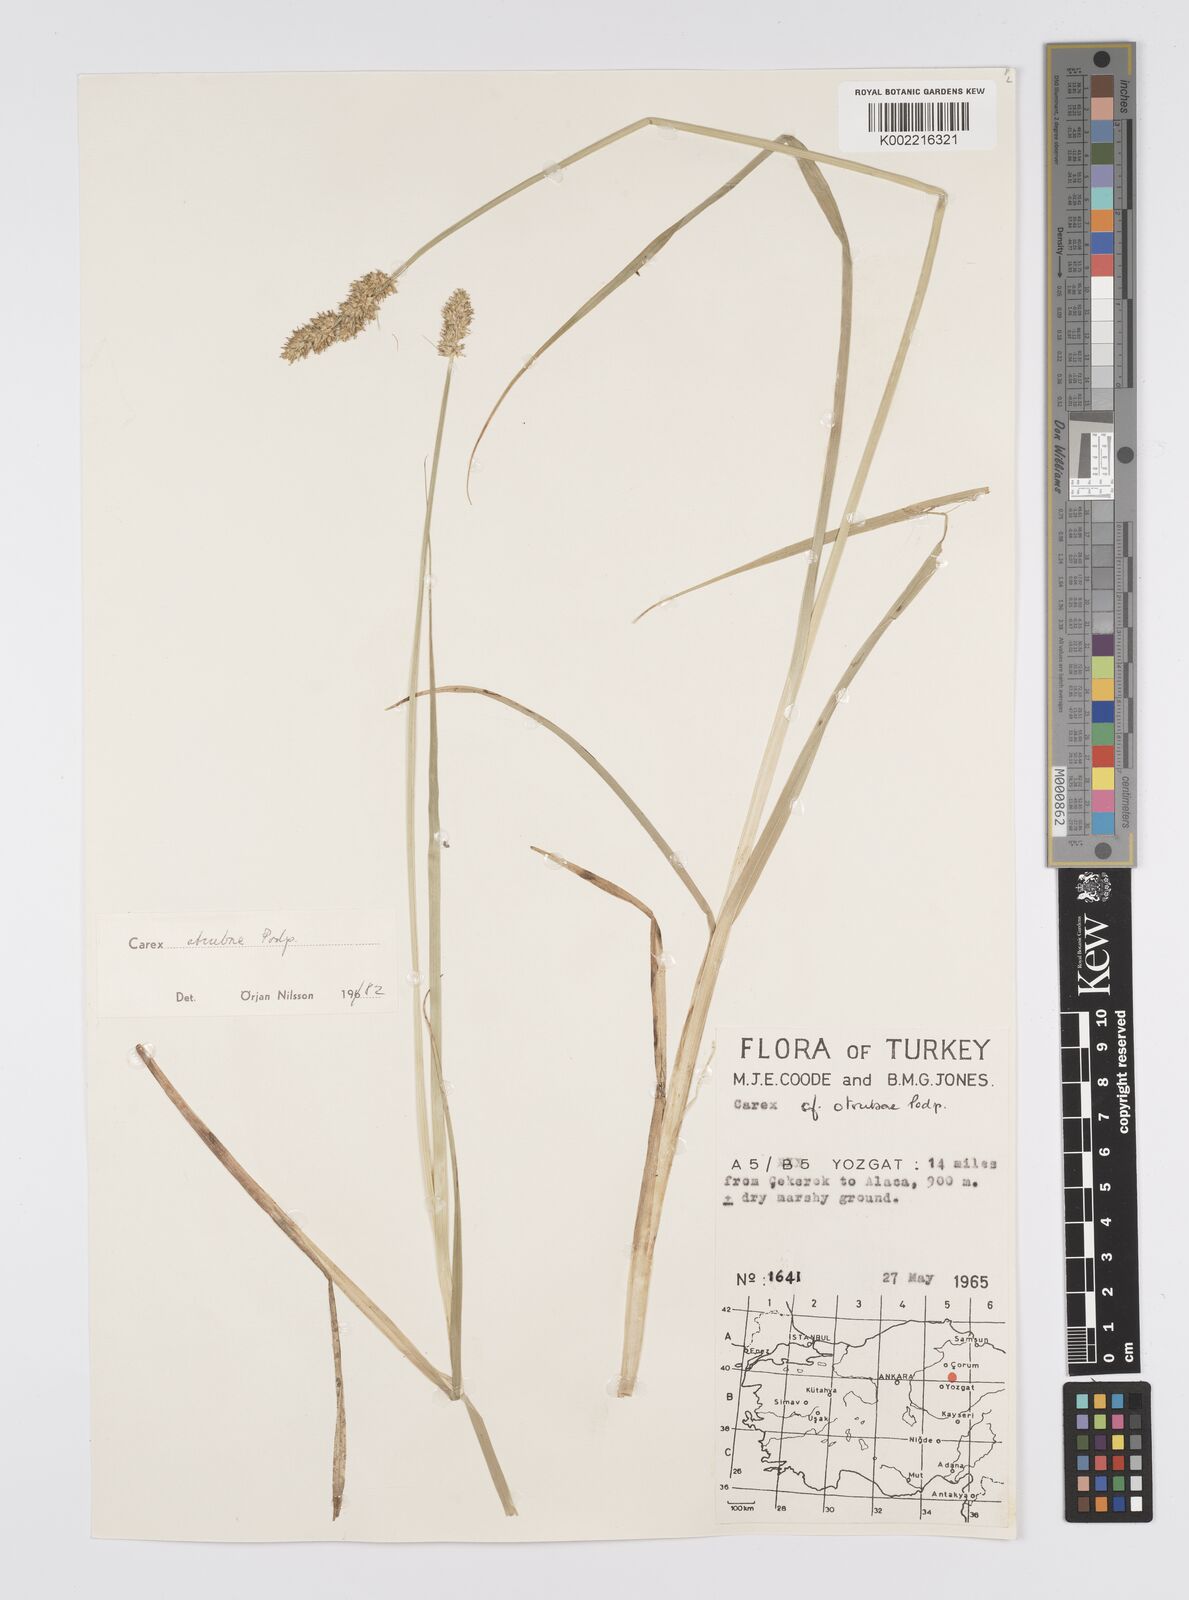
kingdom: Plantae
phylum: Tracheophyta
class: Liliopsida
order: Poales
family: Cyperaceae
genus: Carex
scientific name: Carex otrubae
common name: False fox-sedge
